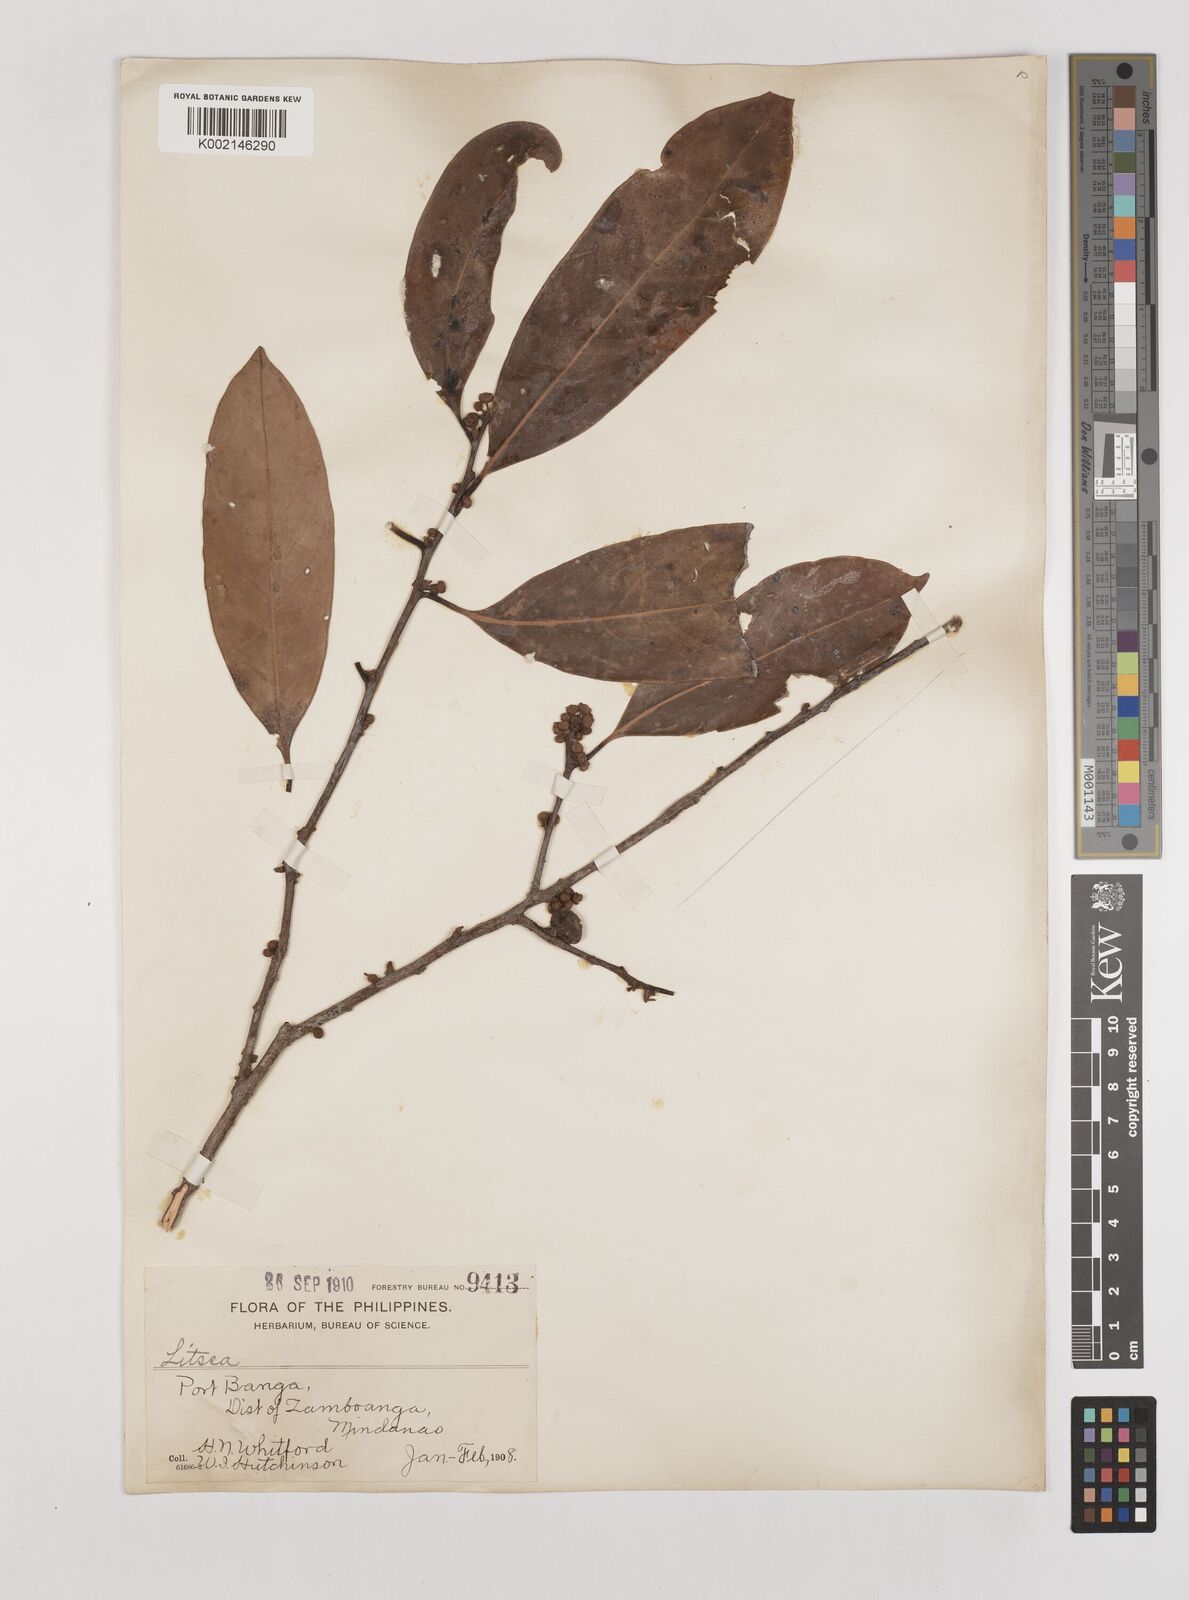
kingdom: Plantae
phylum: Tracheophyta
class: Magnoliopsida
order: Laurales
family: Lauraceae
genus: Litsea
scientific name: Litsea
